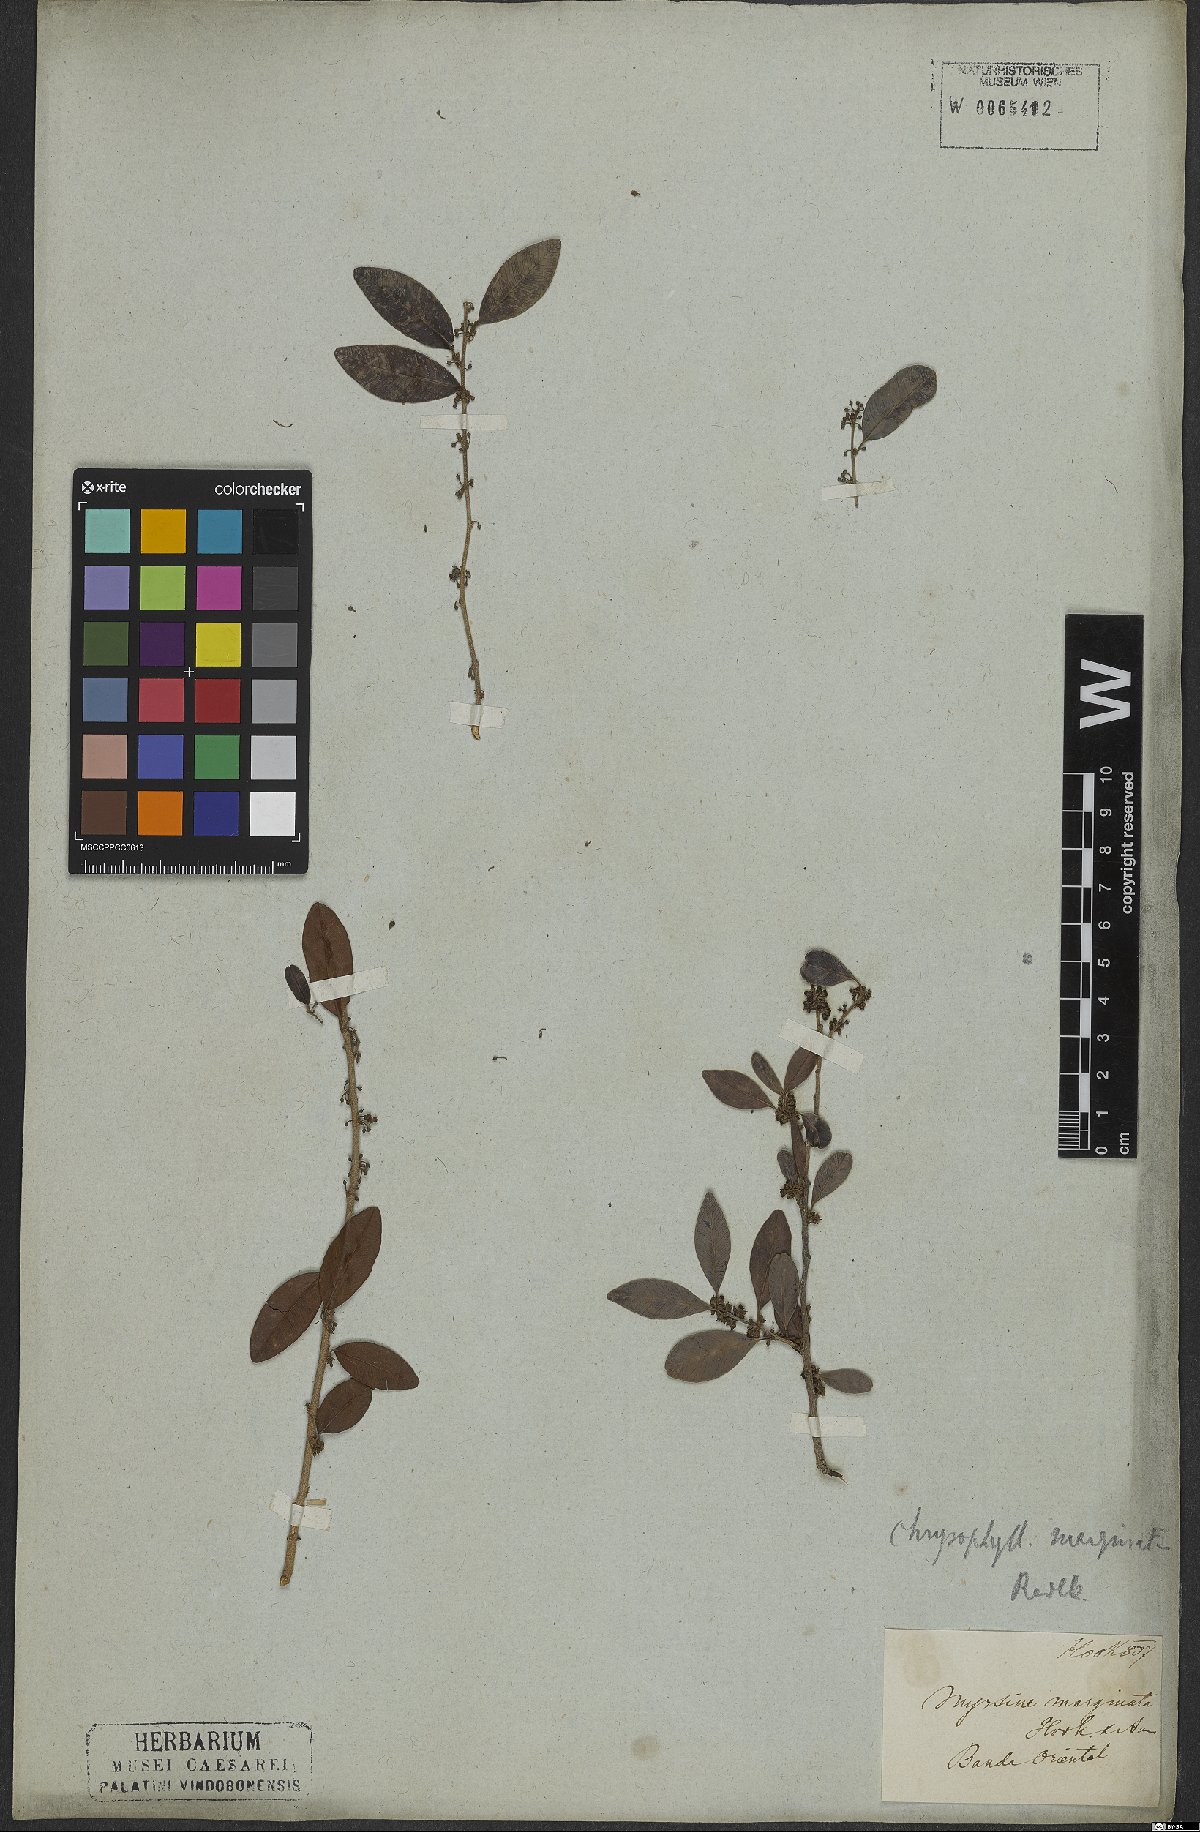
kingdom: Plantae
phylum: Tracheophyta
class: Magnoliopsida
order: Ericales
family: Sapotaceae
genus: Chrysophyllum
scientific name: Chrysophyllum marginatum
